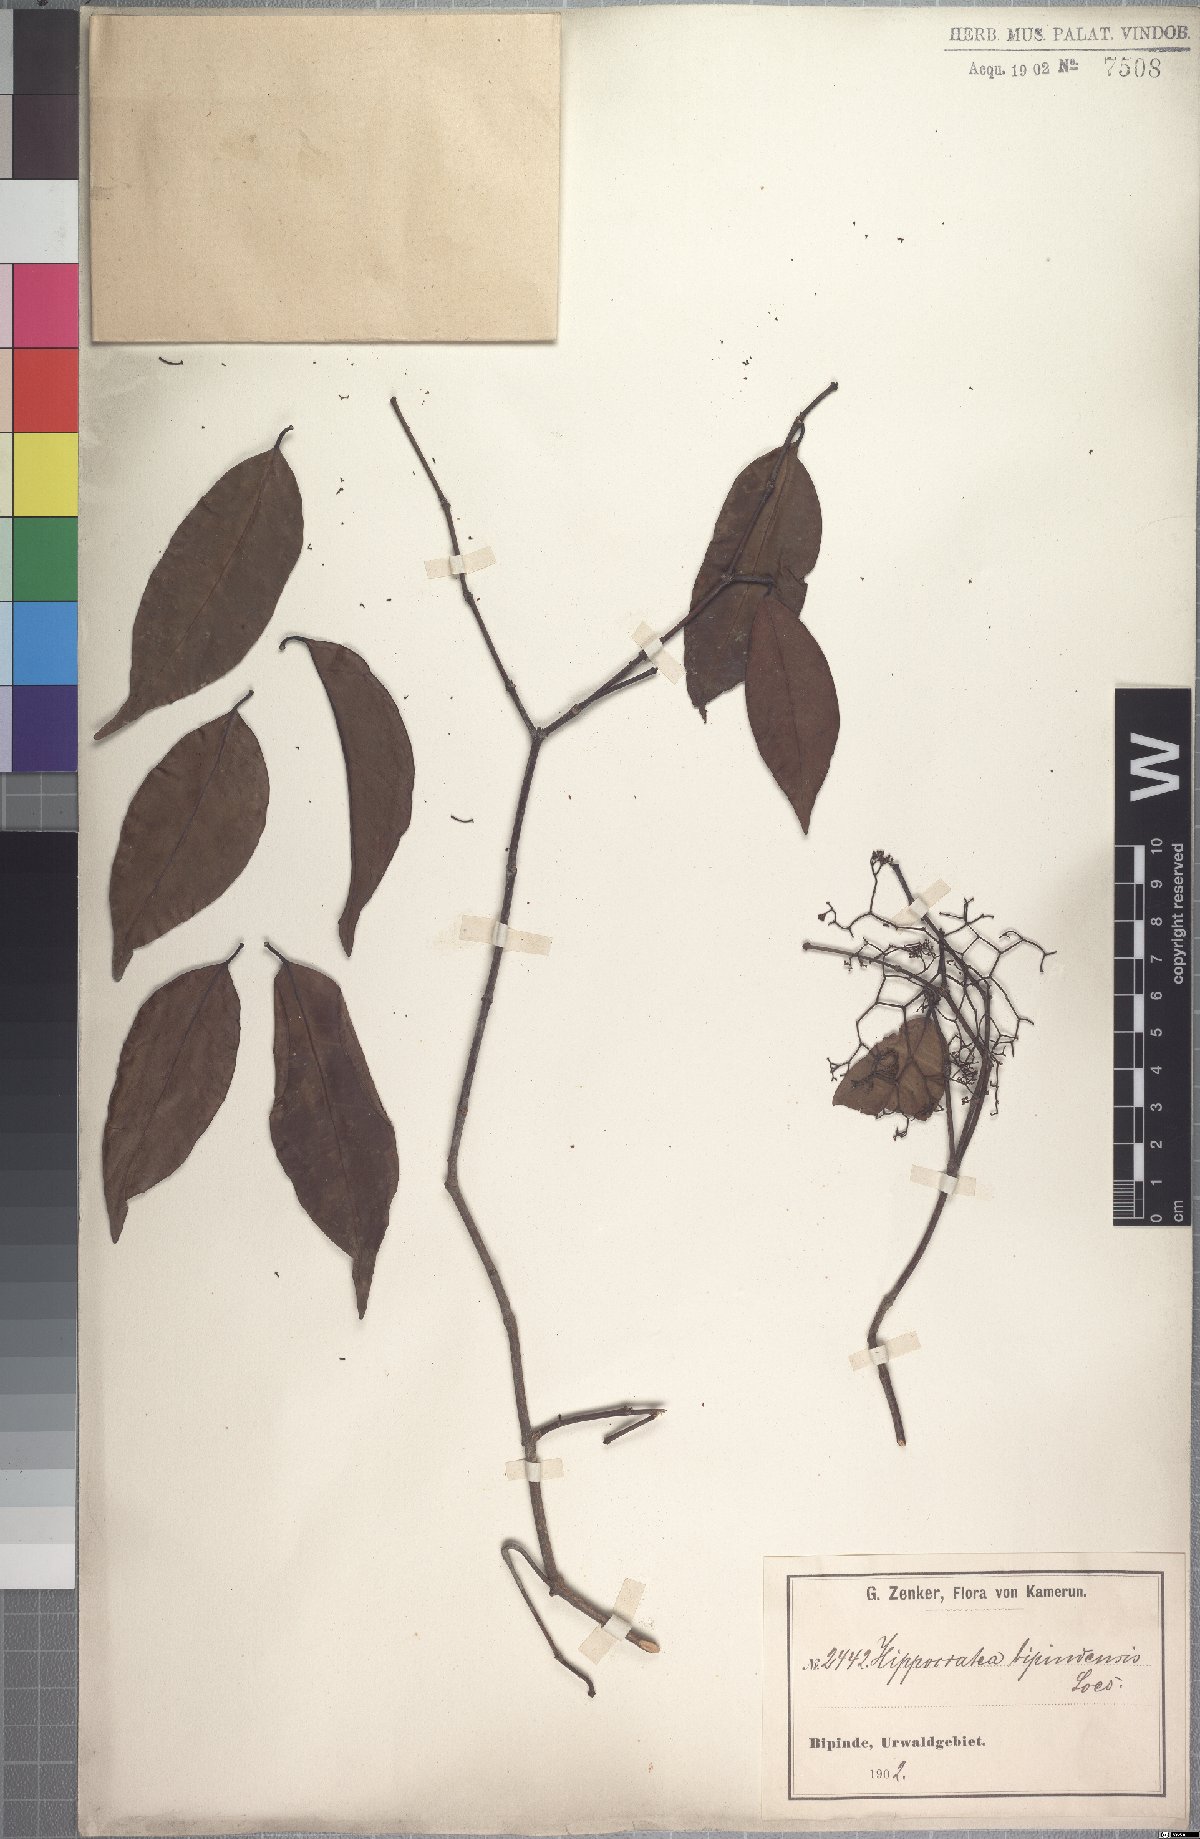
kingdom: Plantae
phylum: Tracheophyta
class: Magnoliopsida
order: Celastrales
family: Celastraceae
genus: Elachyptera
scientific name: Elachyptera bipindensis
